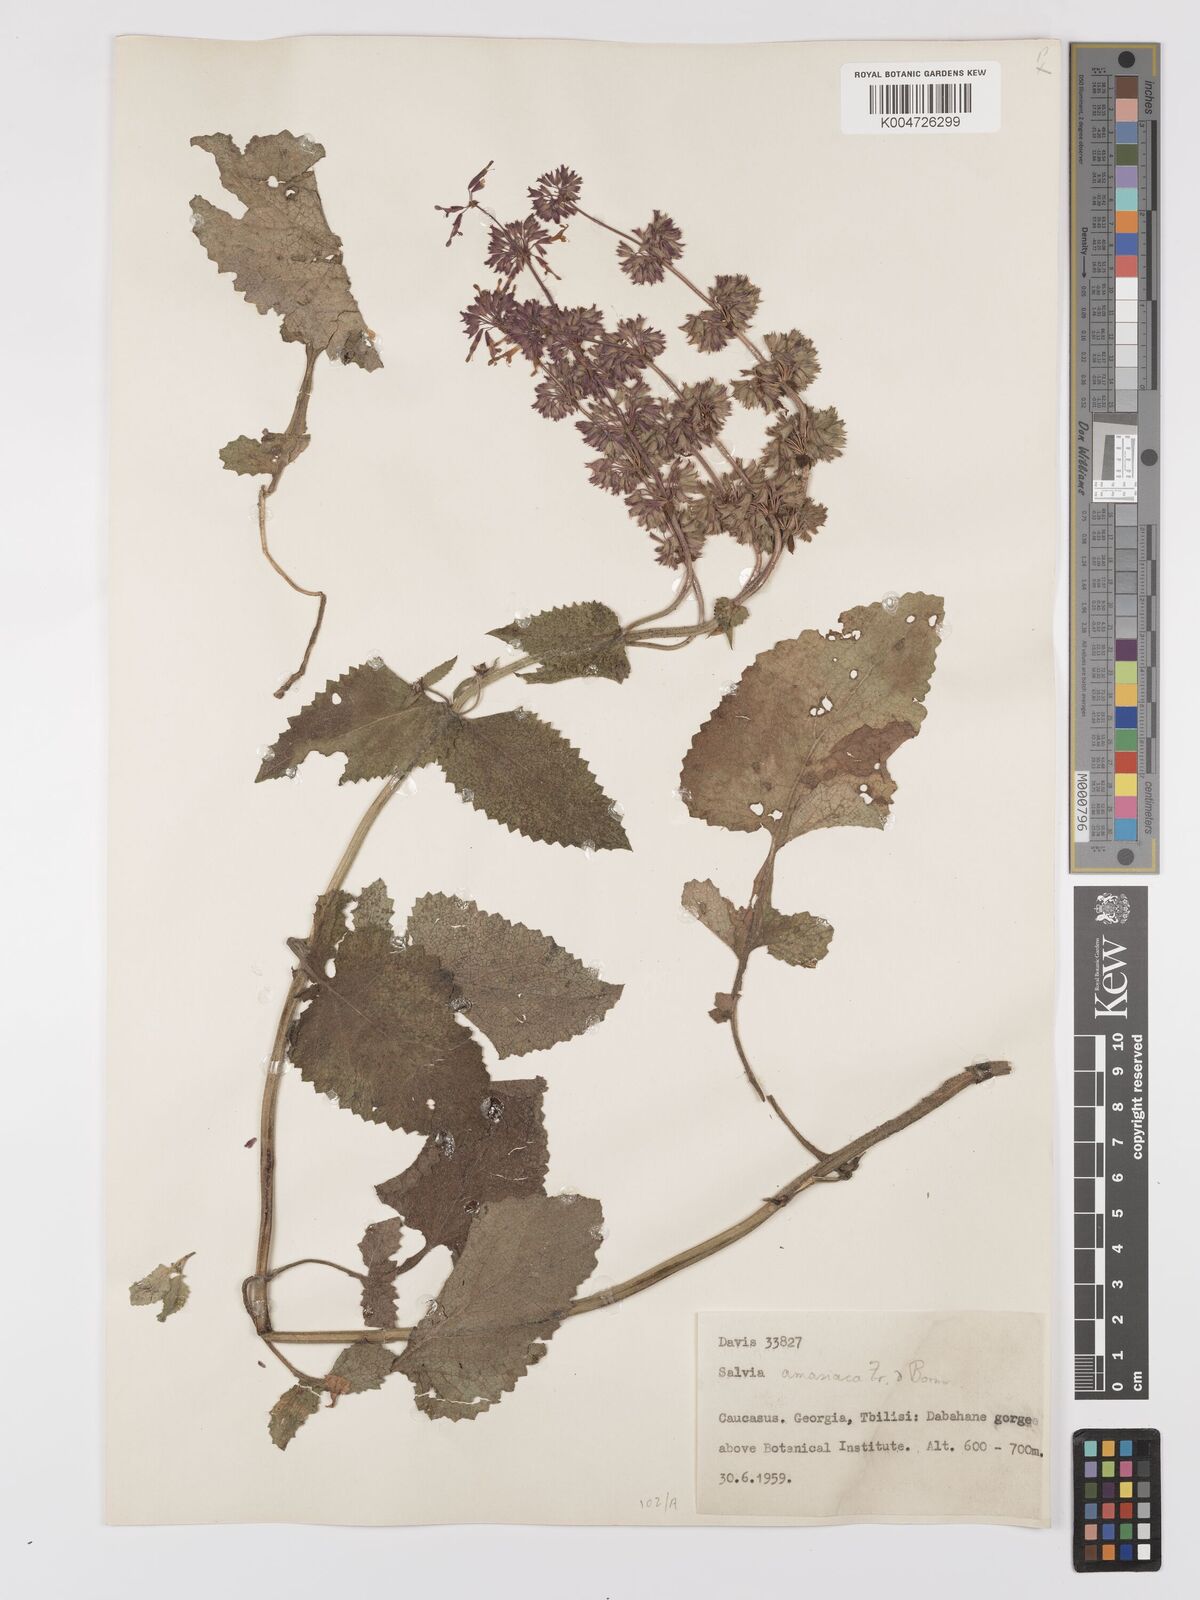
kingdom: Plantae
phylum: Tracheophyta
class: Magnoliopsida
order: Lamiales
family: Lamiaceae
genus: Salvia
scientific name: Salvia verticillata
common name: Whorled clary
